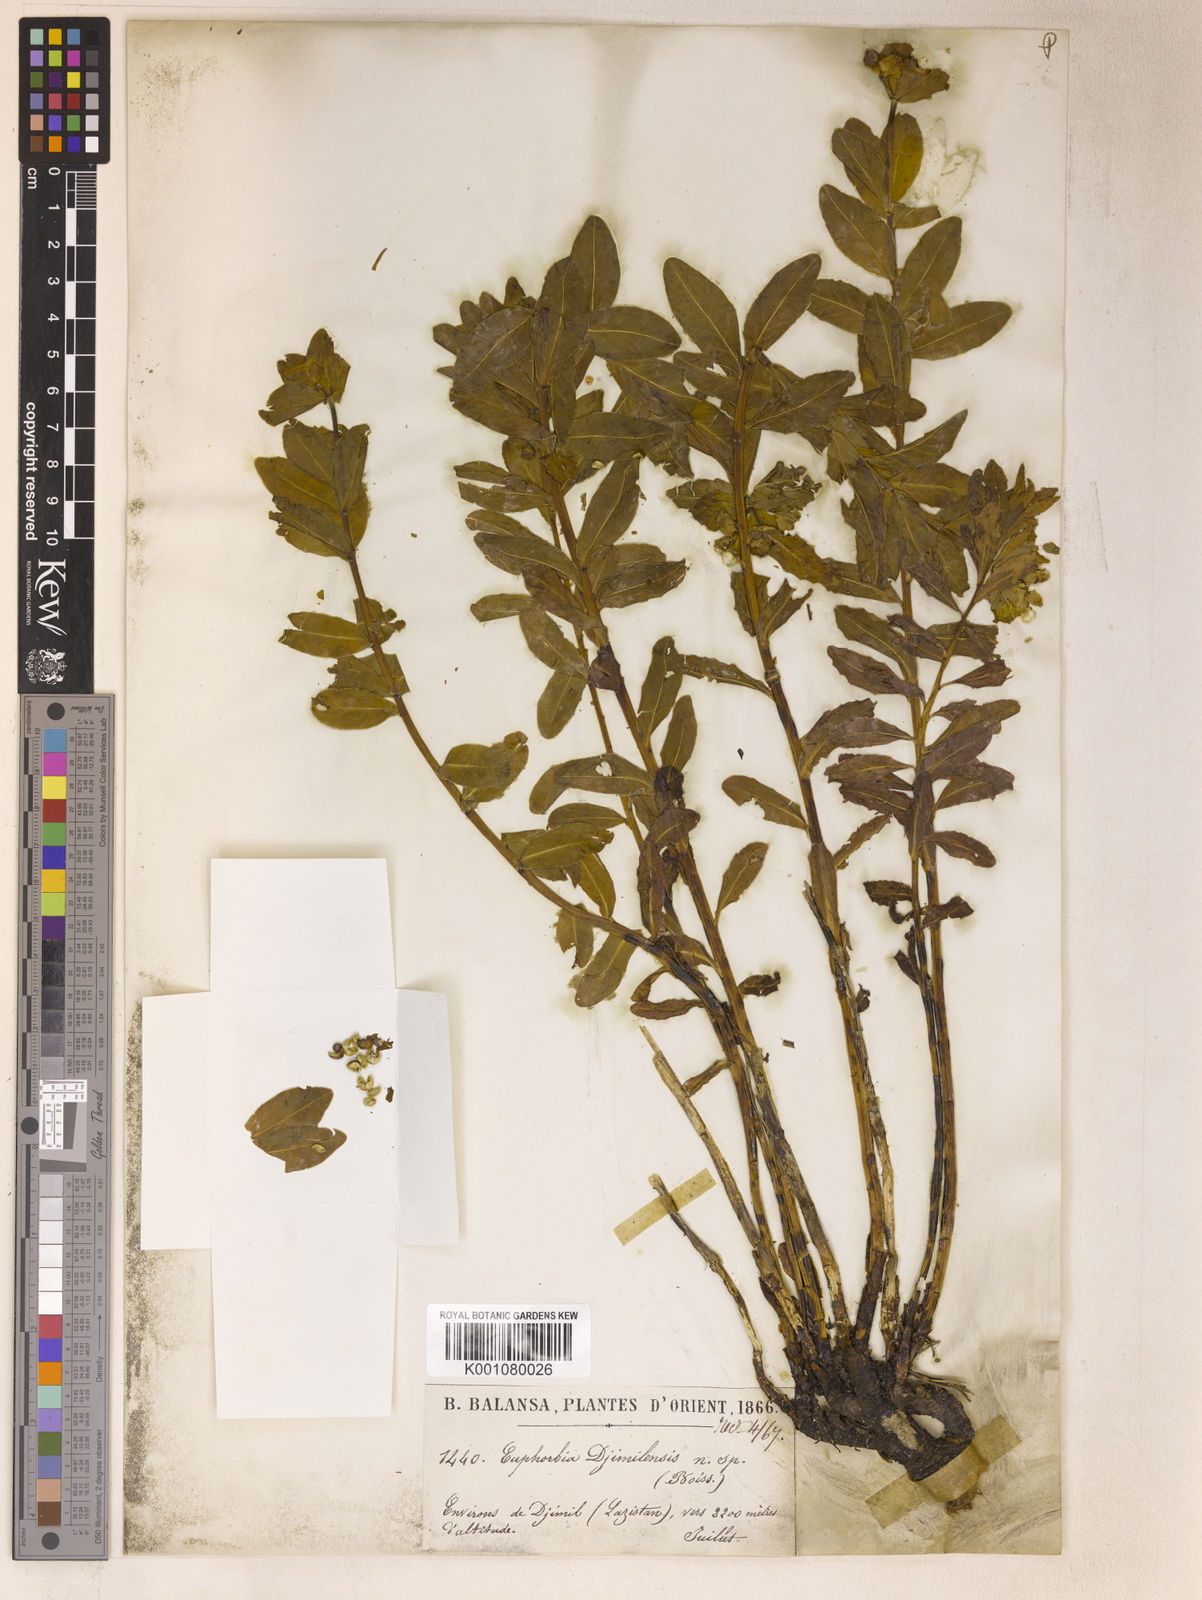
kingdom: Plantae
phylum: Tracheophyta
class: Magnoliopsida
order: Malpighiales
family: Euphorbiaceae
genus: Euphorbia
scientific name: Euphorbia djimilensis
